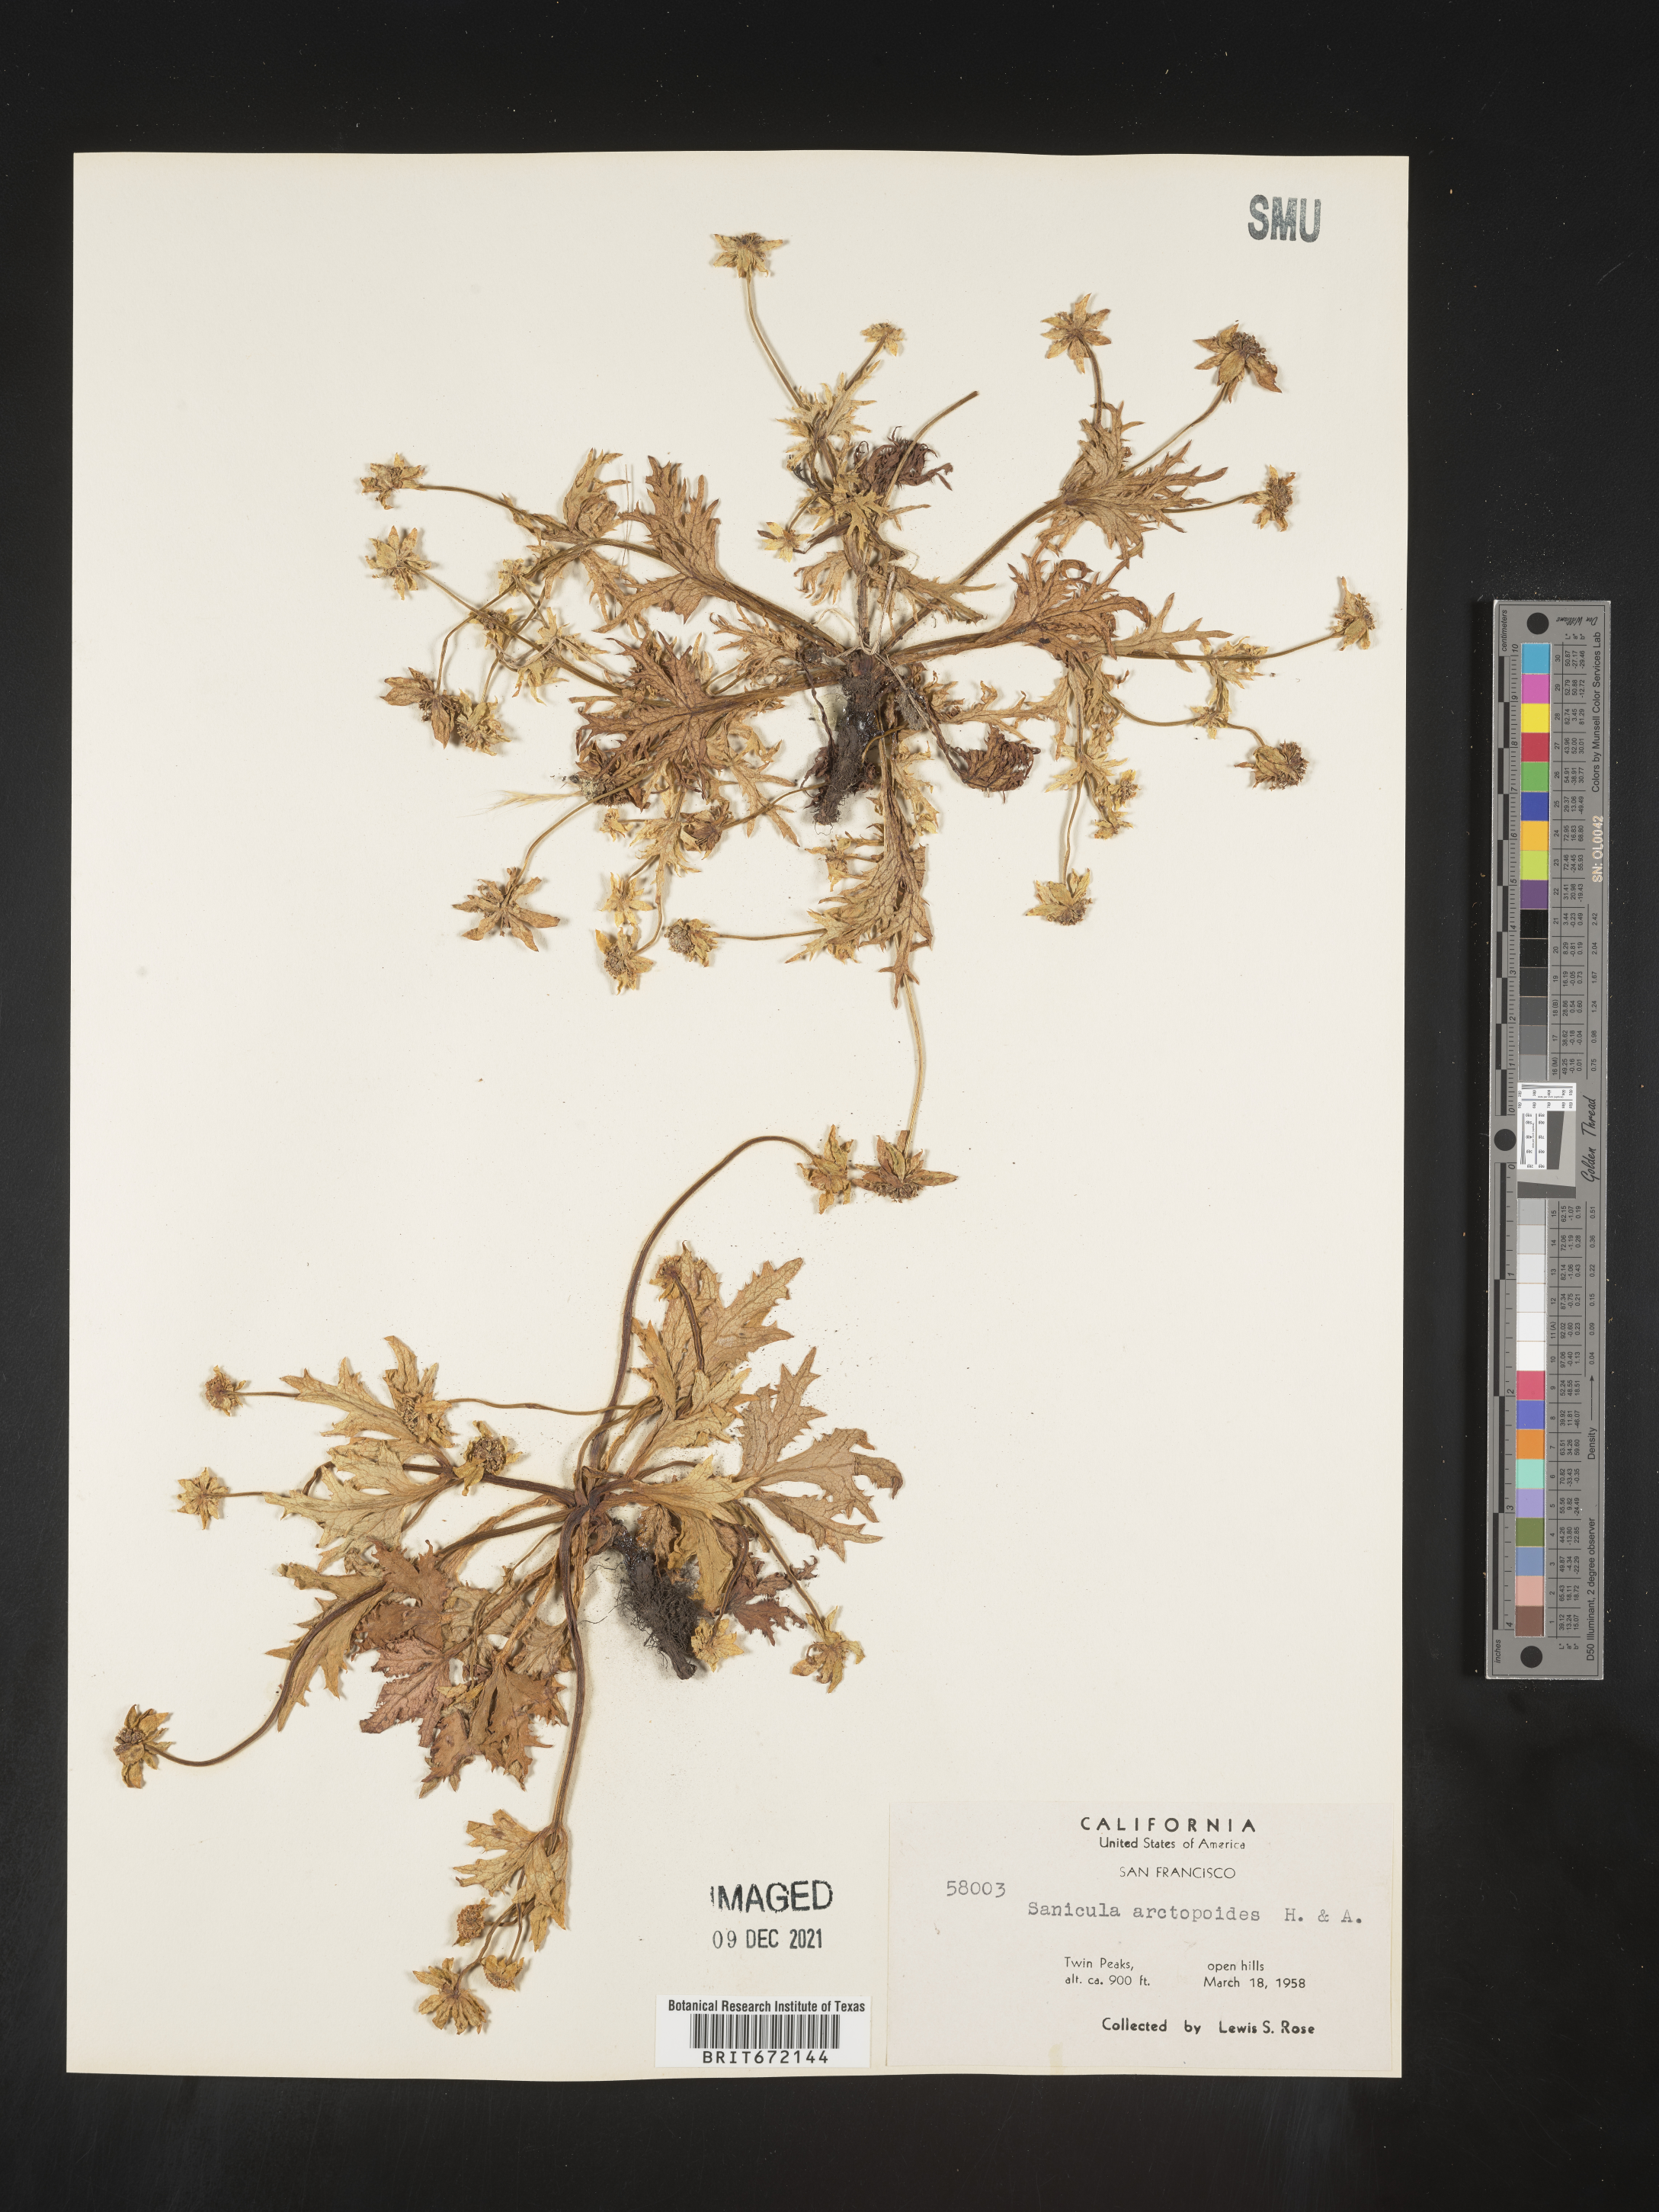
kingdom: Plantae
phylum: Tracheophyta
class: Magnoliopsida
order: Apiales
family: Apiaceae
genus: Sanicula
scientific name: Sanicula
